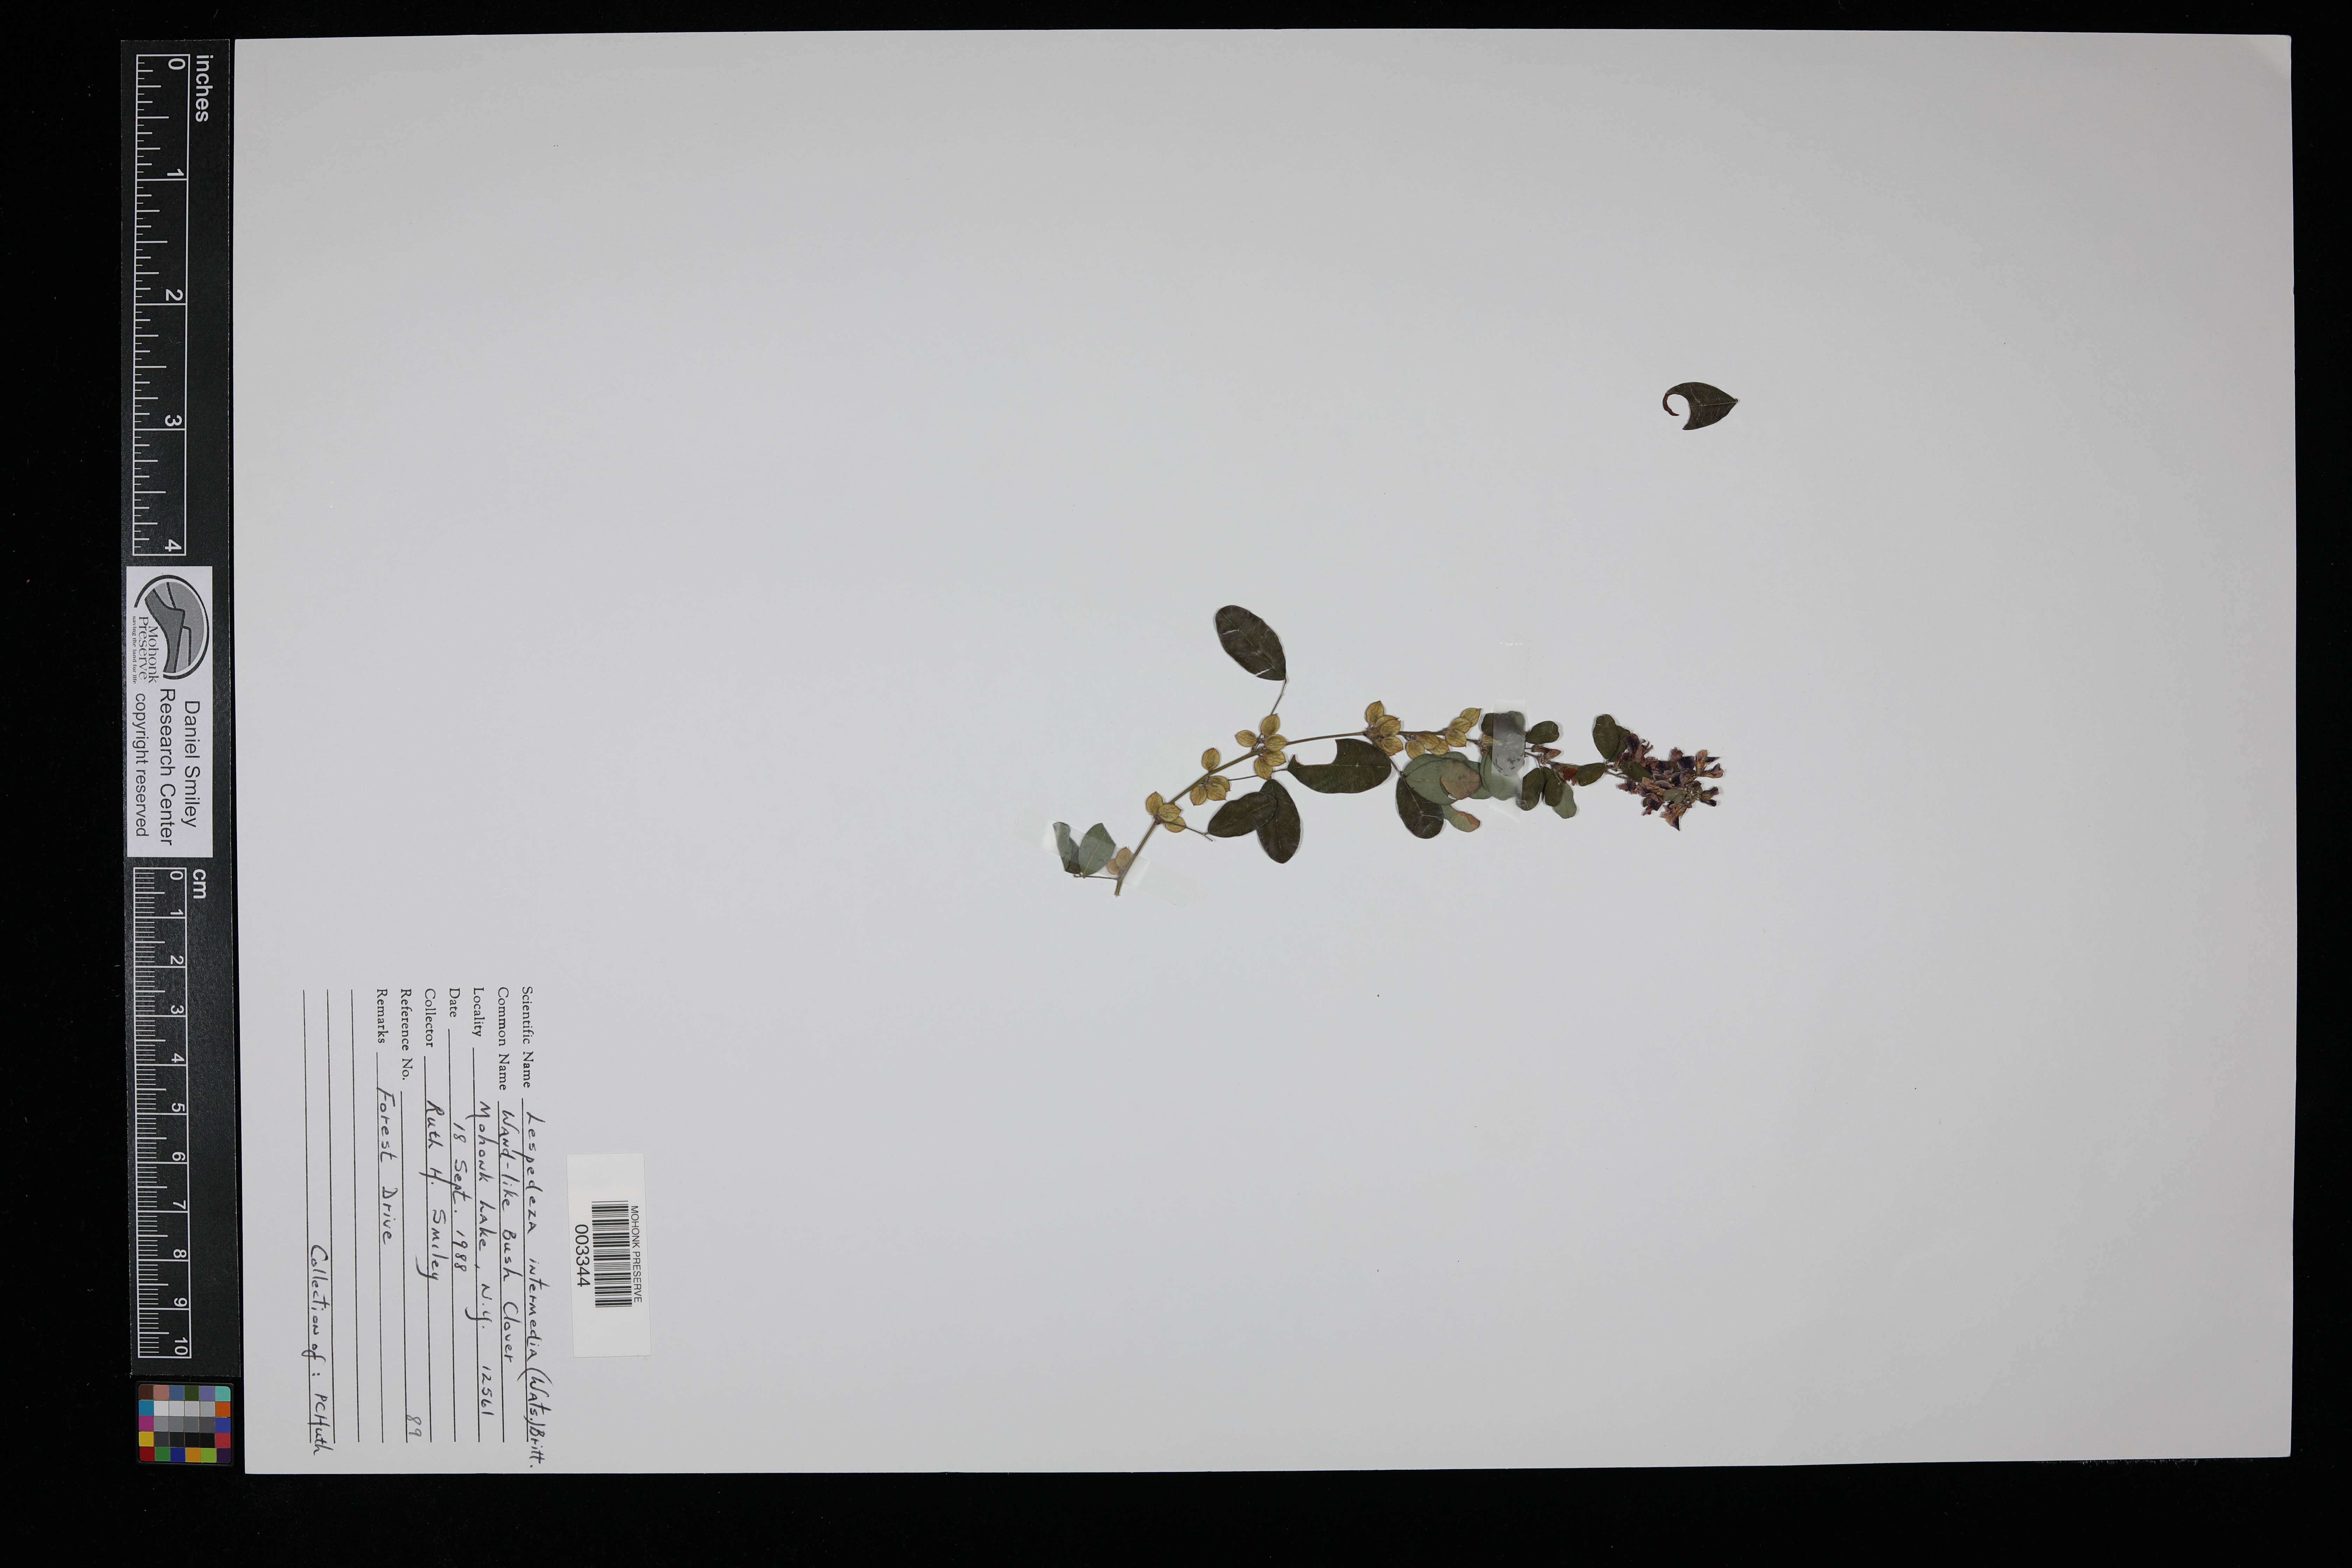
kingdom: Plantae
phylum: Tracheophyta
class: Magnoliopsida
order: Fabales
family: Fabaceae
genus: Lespedeza
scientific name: Lespedeza
